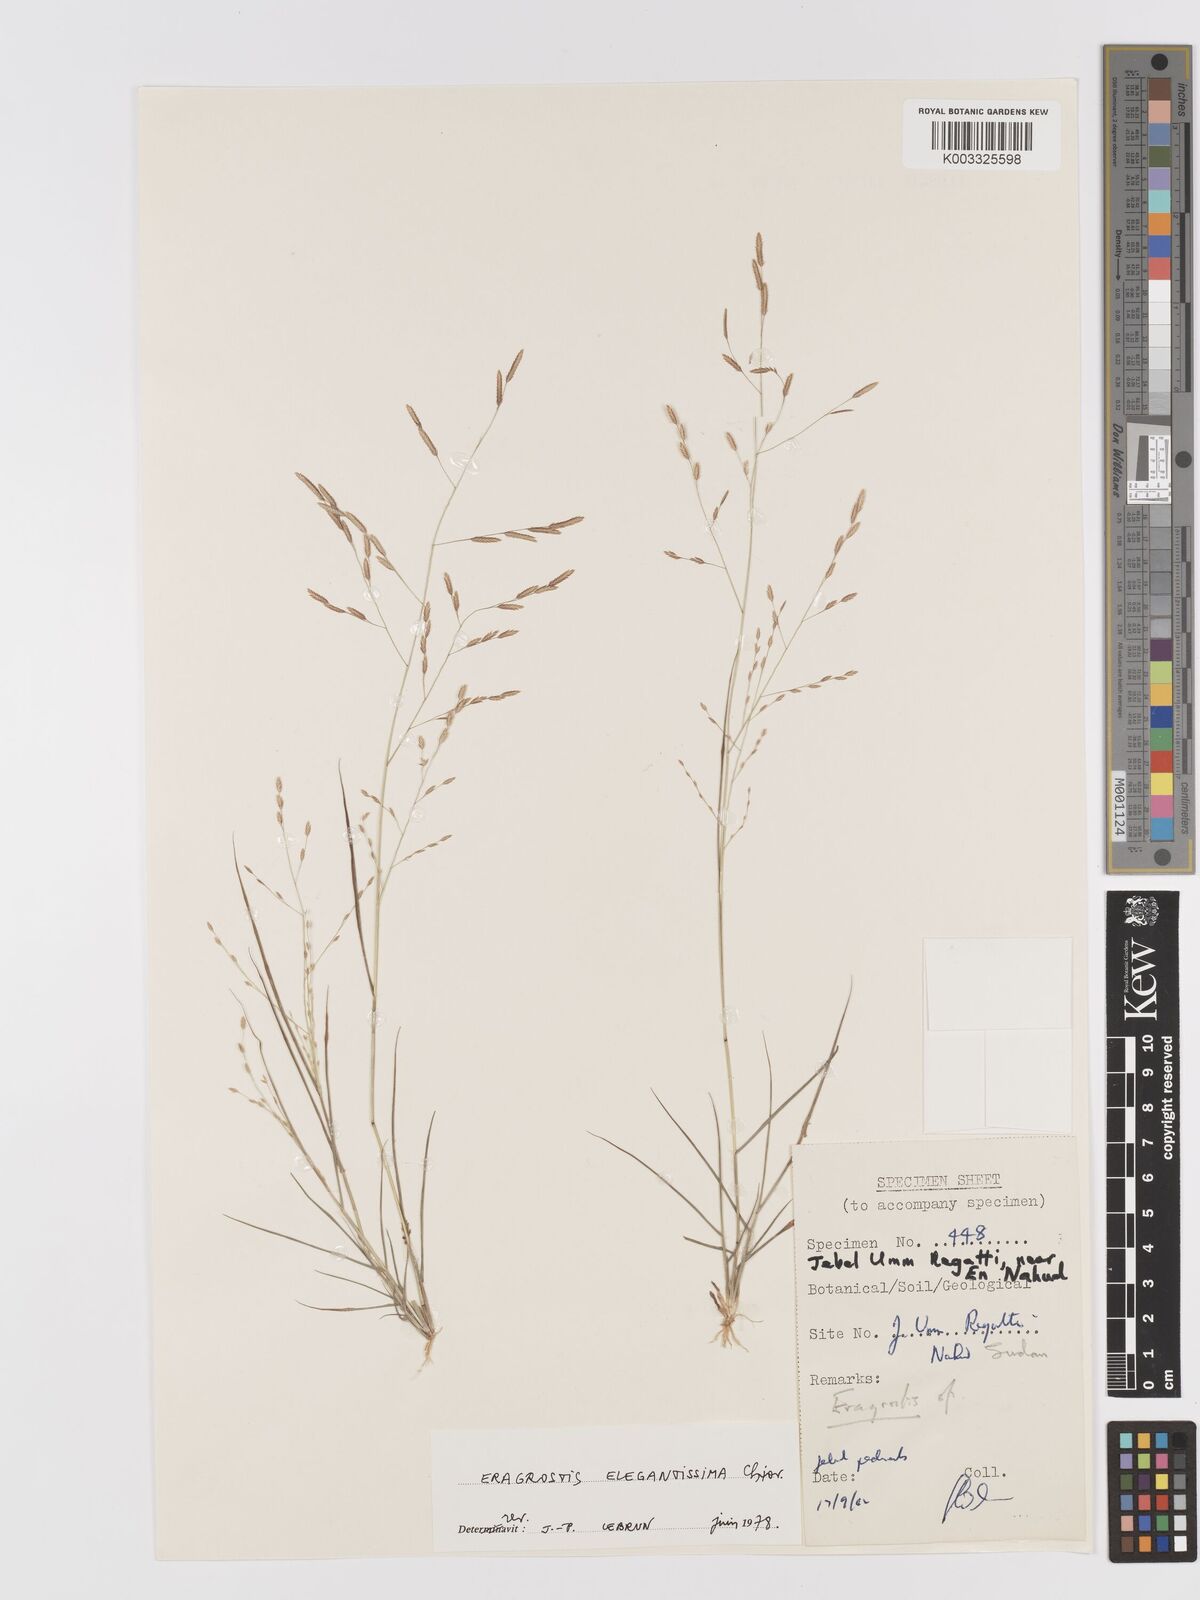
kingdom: Plantae
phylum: Tracheophyta
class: Liliopsida
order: Poales
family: Poaceae
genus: Eragrostis
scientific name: Eragrostis elegantissima
